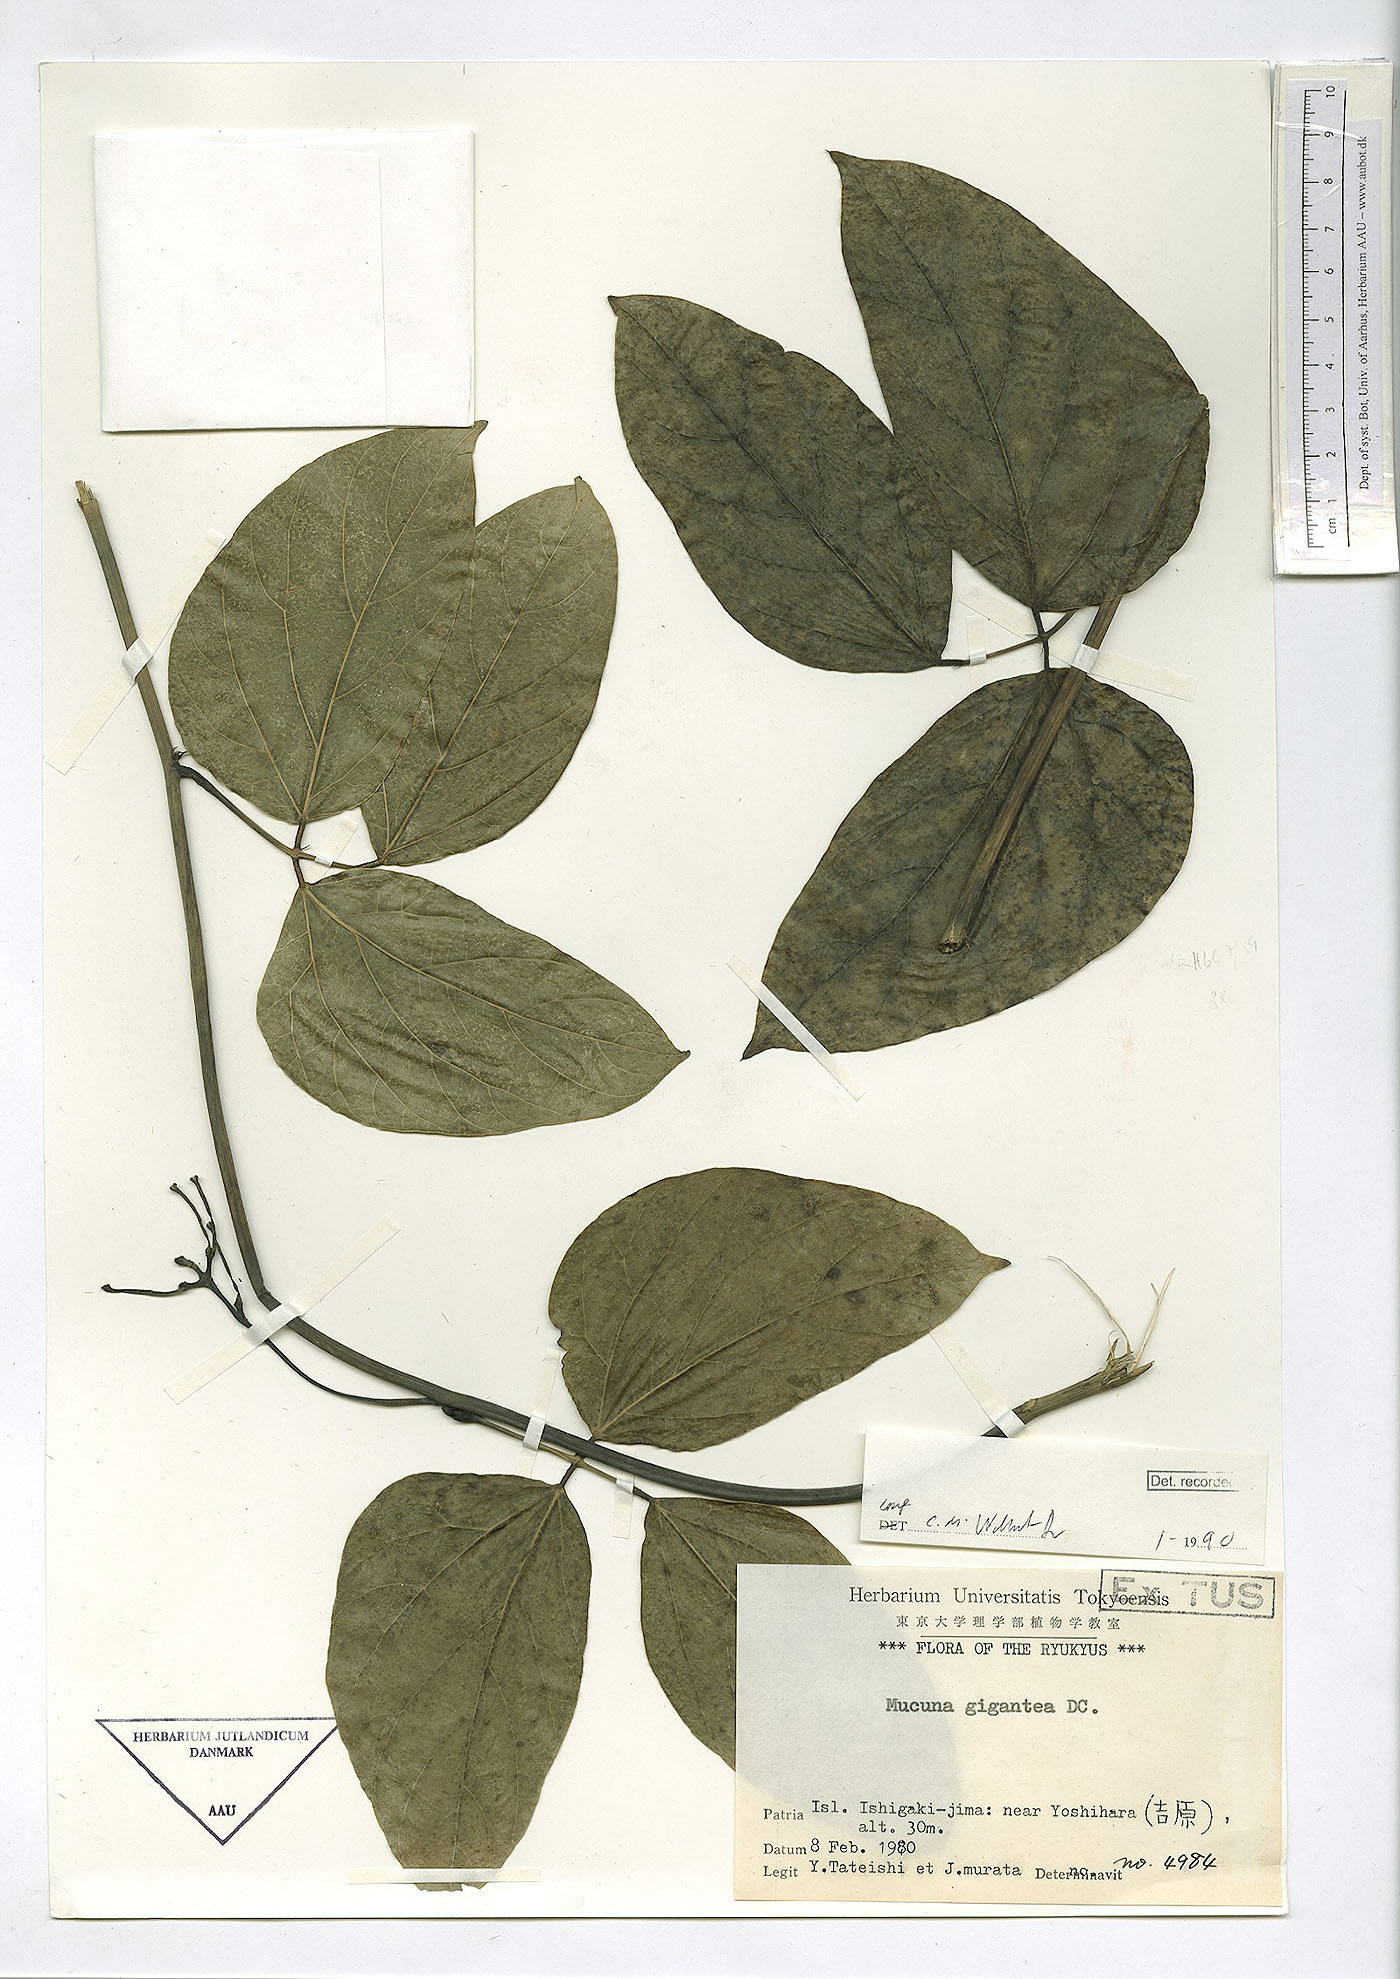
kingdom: Plantae
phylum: Tracheophyta
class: Magnoliopsida
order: Fabales
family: Fabaceae
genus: Mucuna
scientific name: Mucuna gigantea
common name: Black-bean
